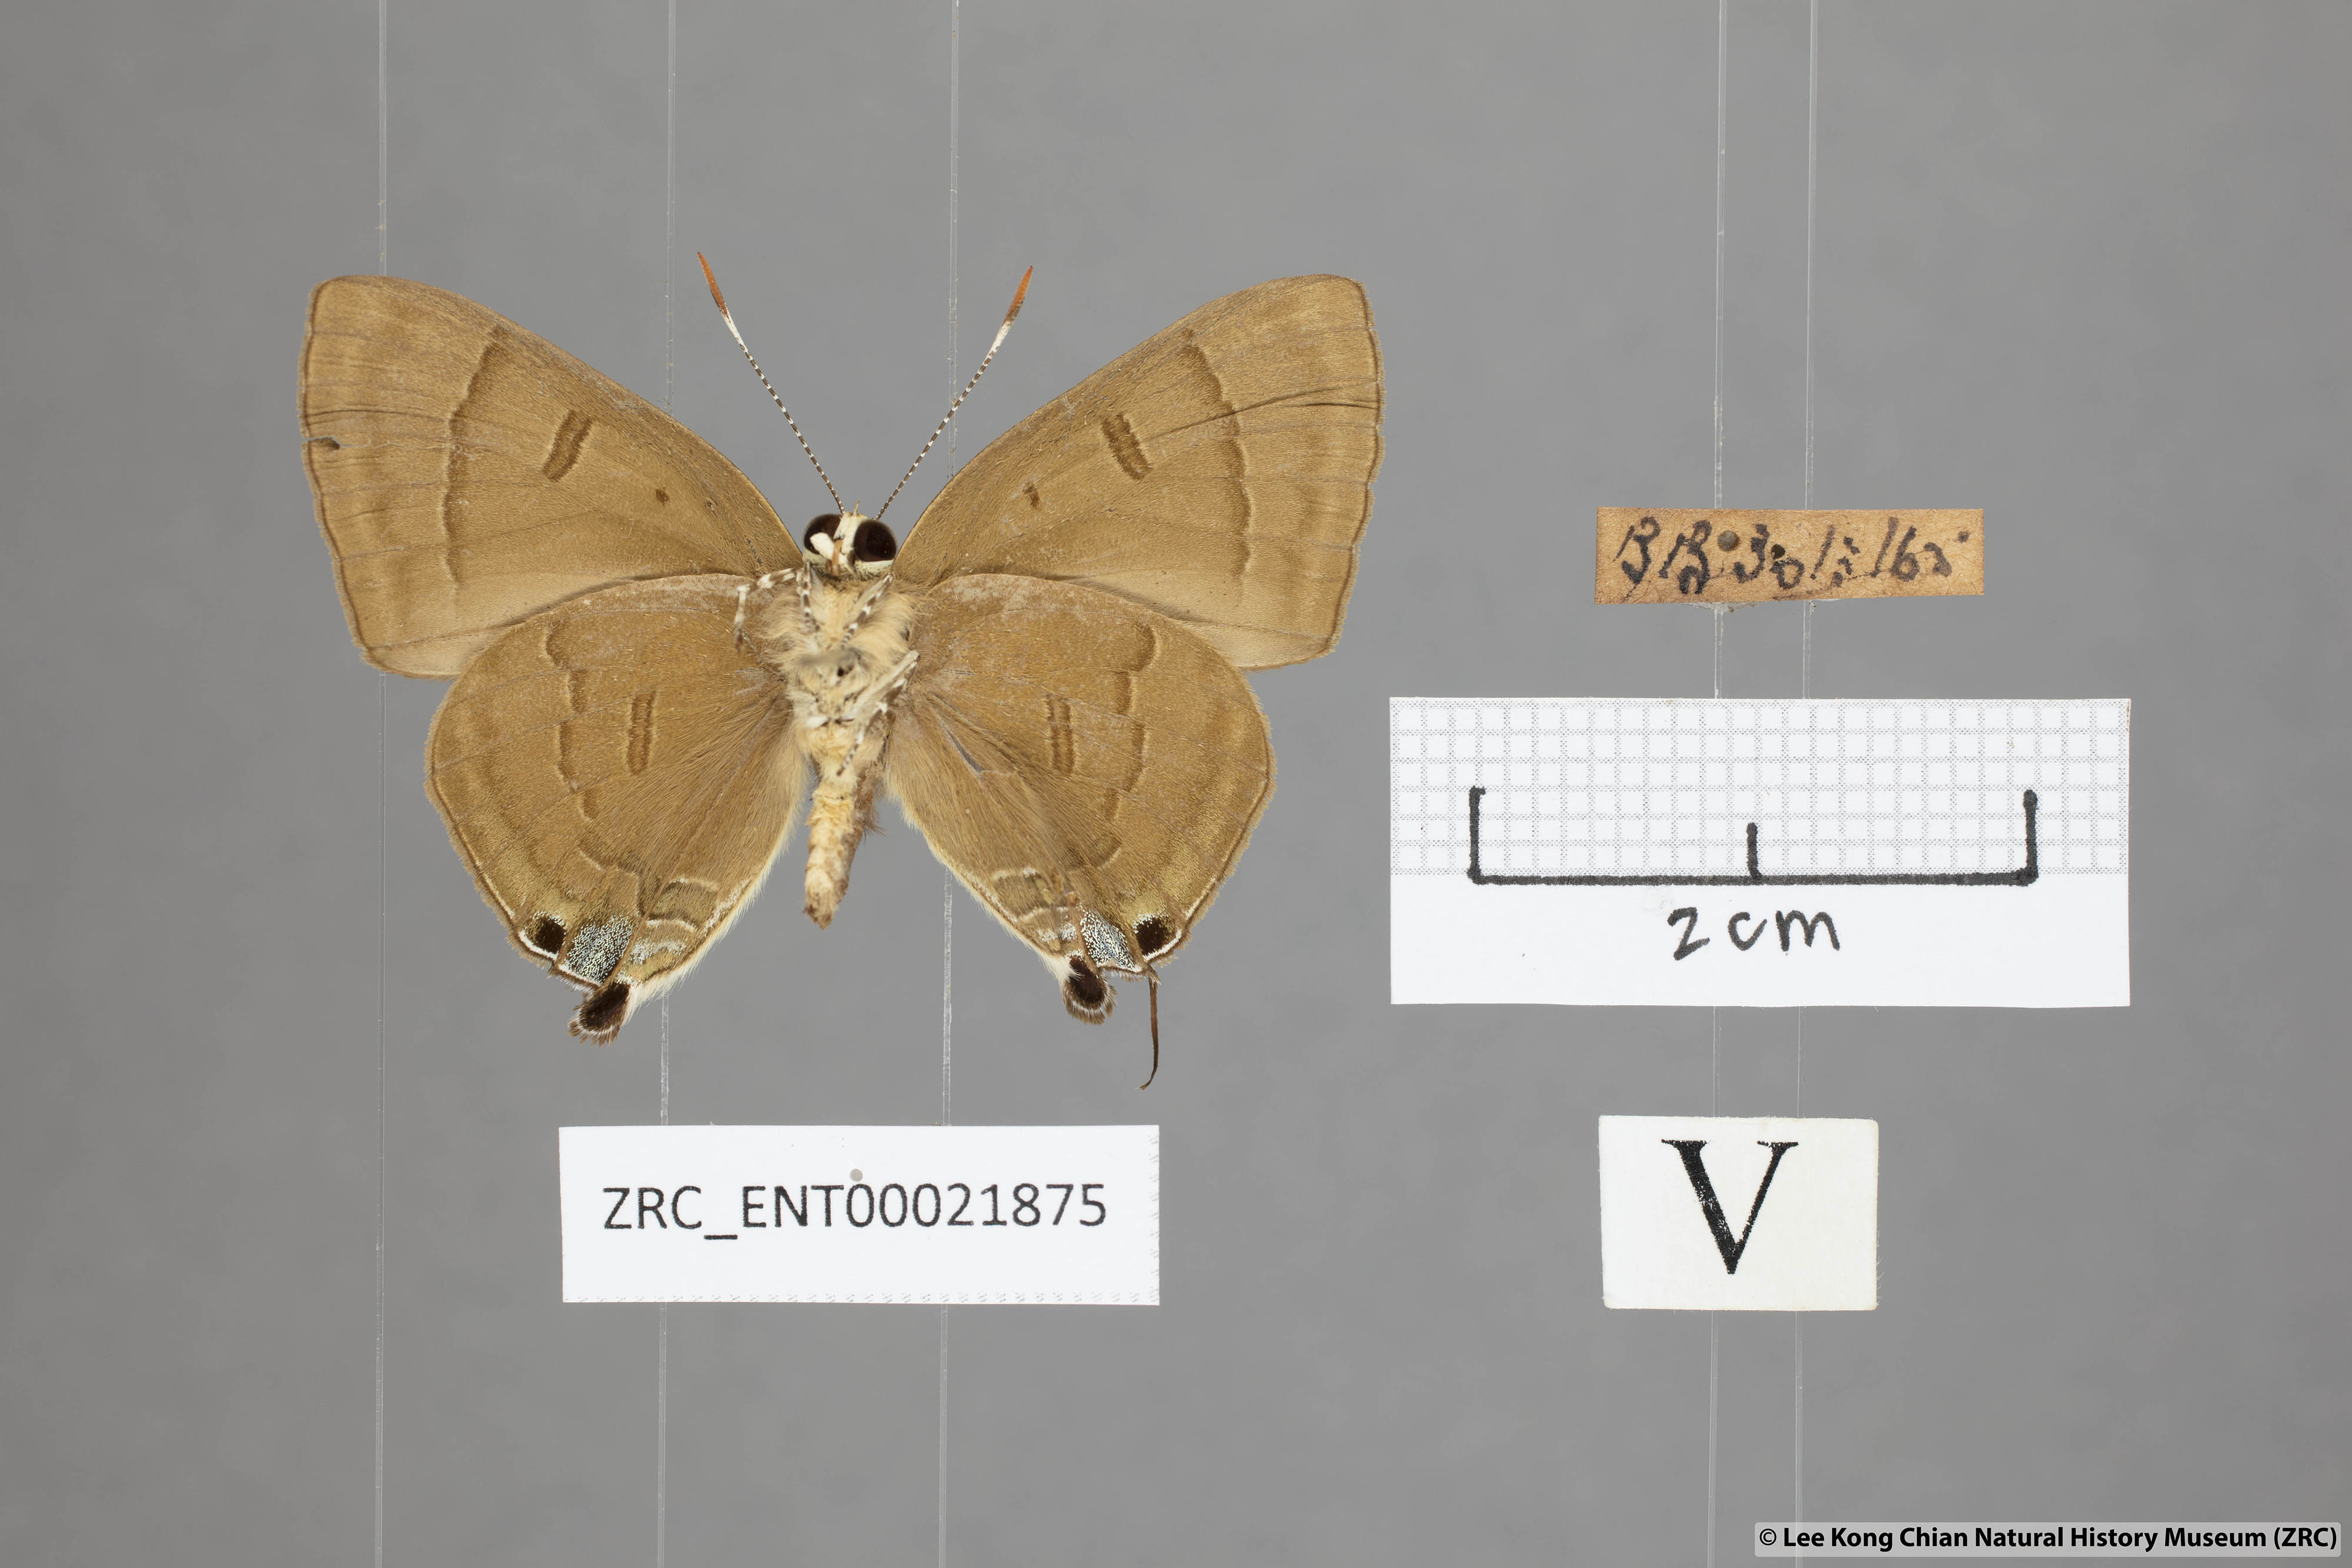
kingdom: Animalia
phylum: Arthropoda
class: Insecta
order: Lepidoptera
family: Lycaenidae
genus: Rapala
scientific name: Rapala pheretima
